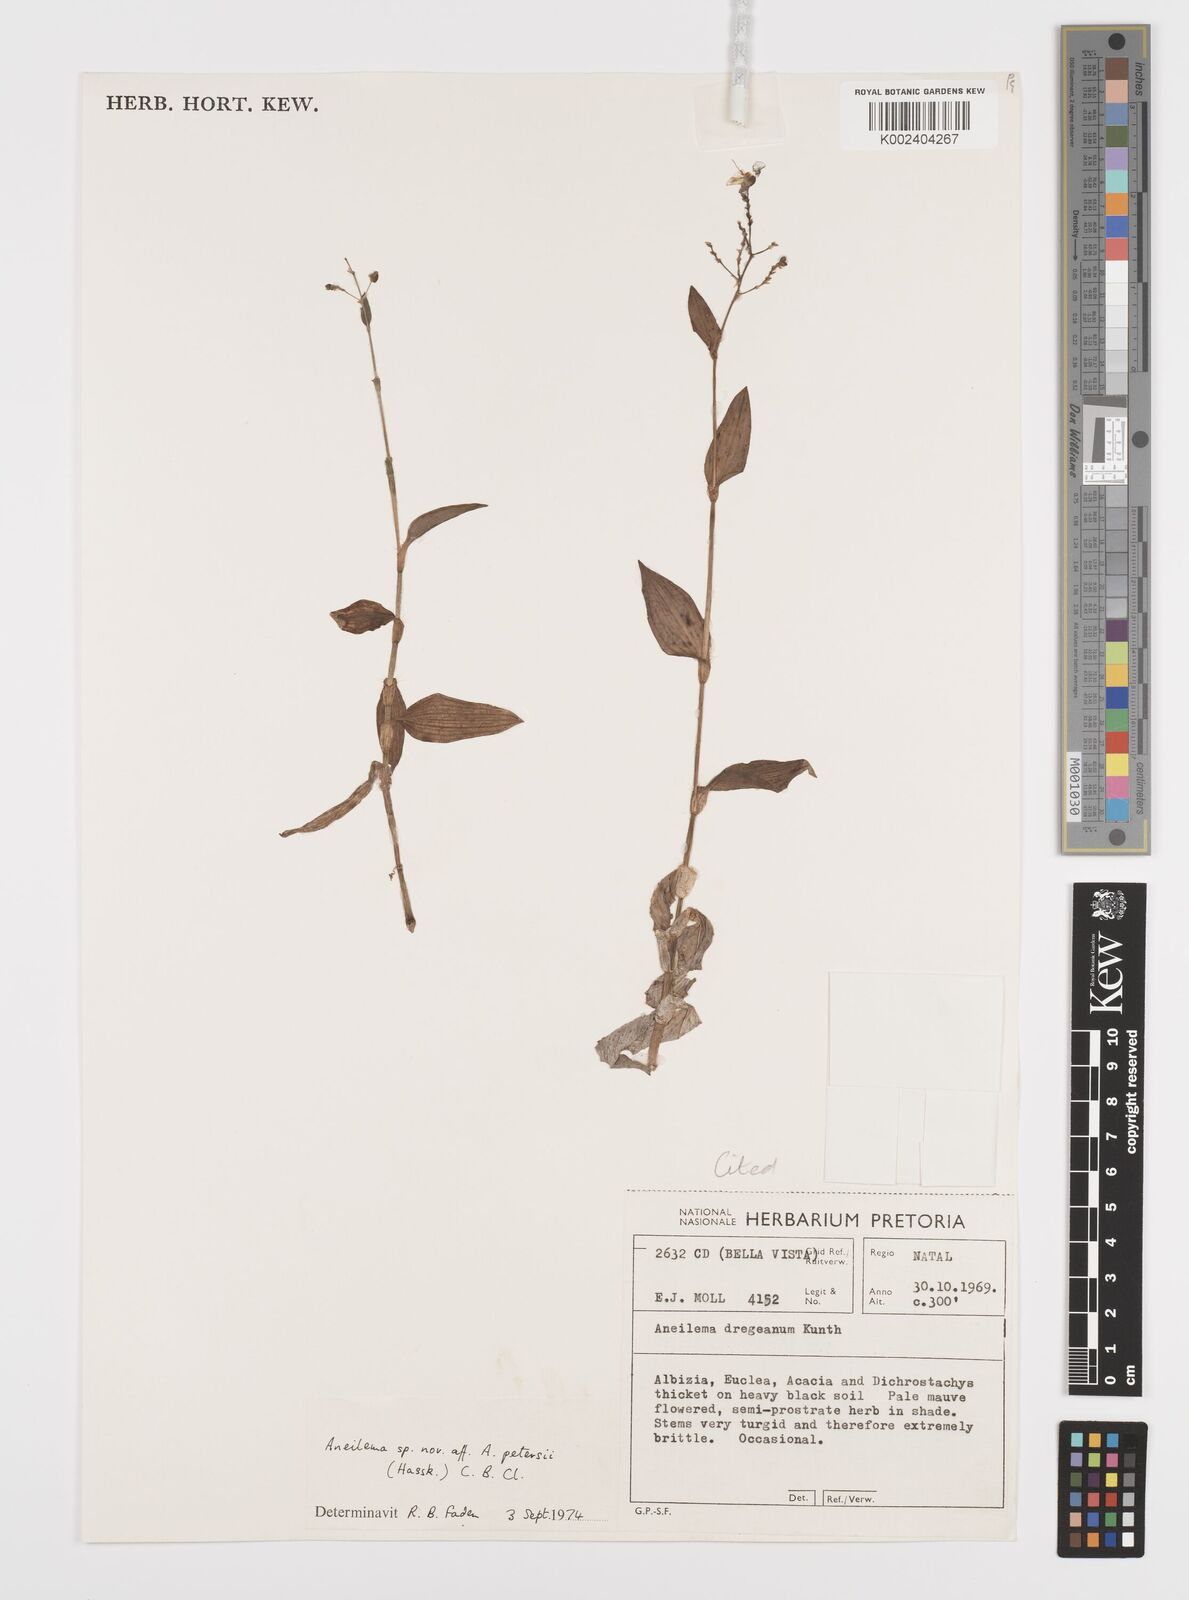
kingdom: Plantae
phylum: Tracheophyta
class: Liliopsida
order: Commelinales
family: Commelinaceae
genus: Aneilema
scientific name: Aneilema indehiscens
